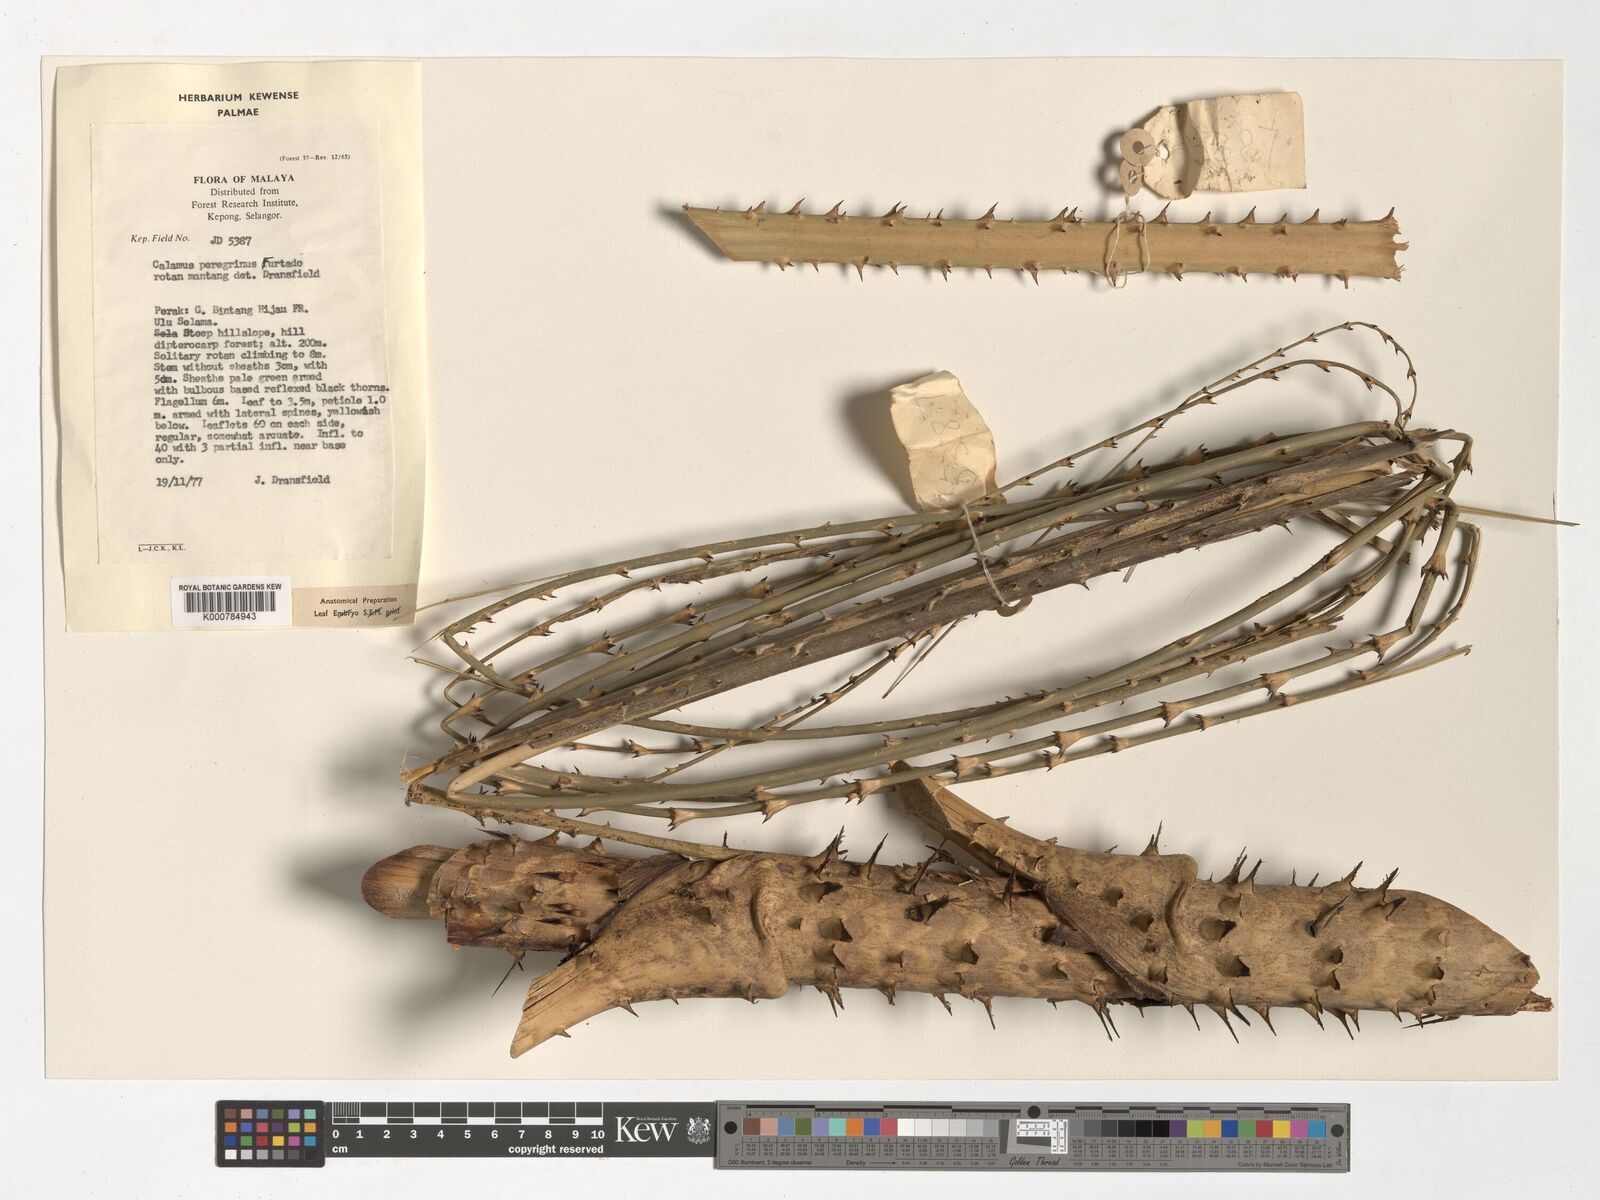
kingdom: Plantae
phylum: Tracheophyta
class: Liliopsida
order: Arecales
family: Arecaceae
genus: Calamus
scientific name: Calamus peregrinus
